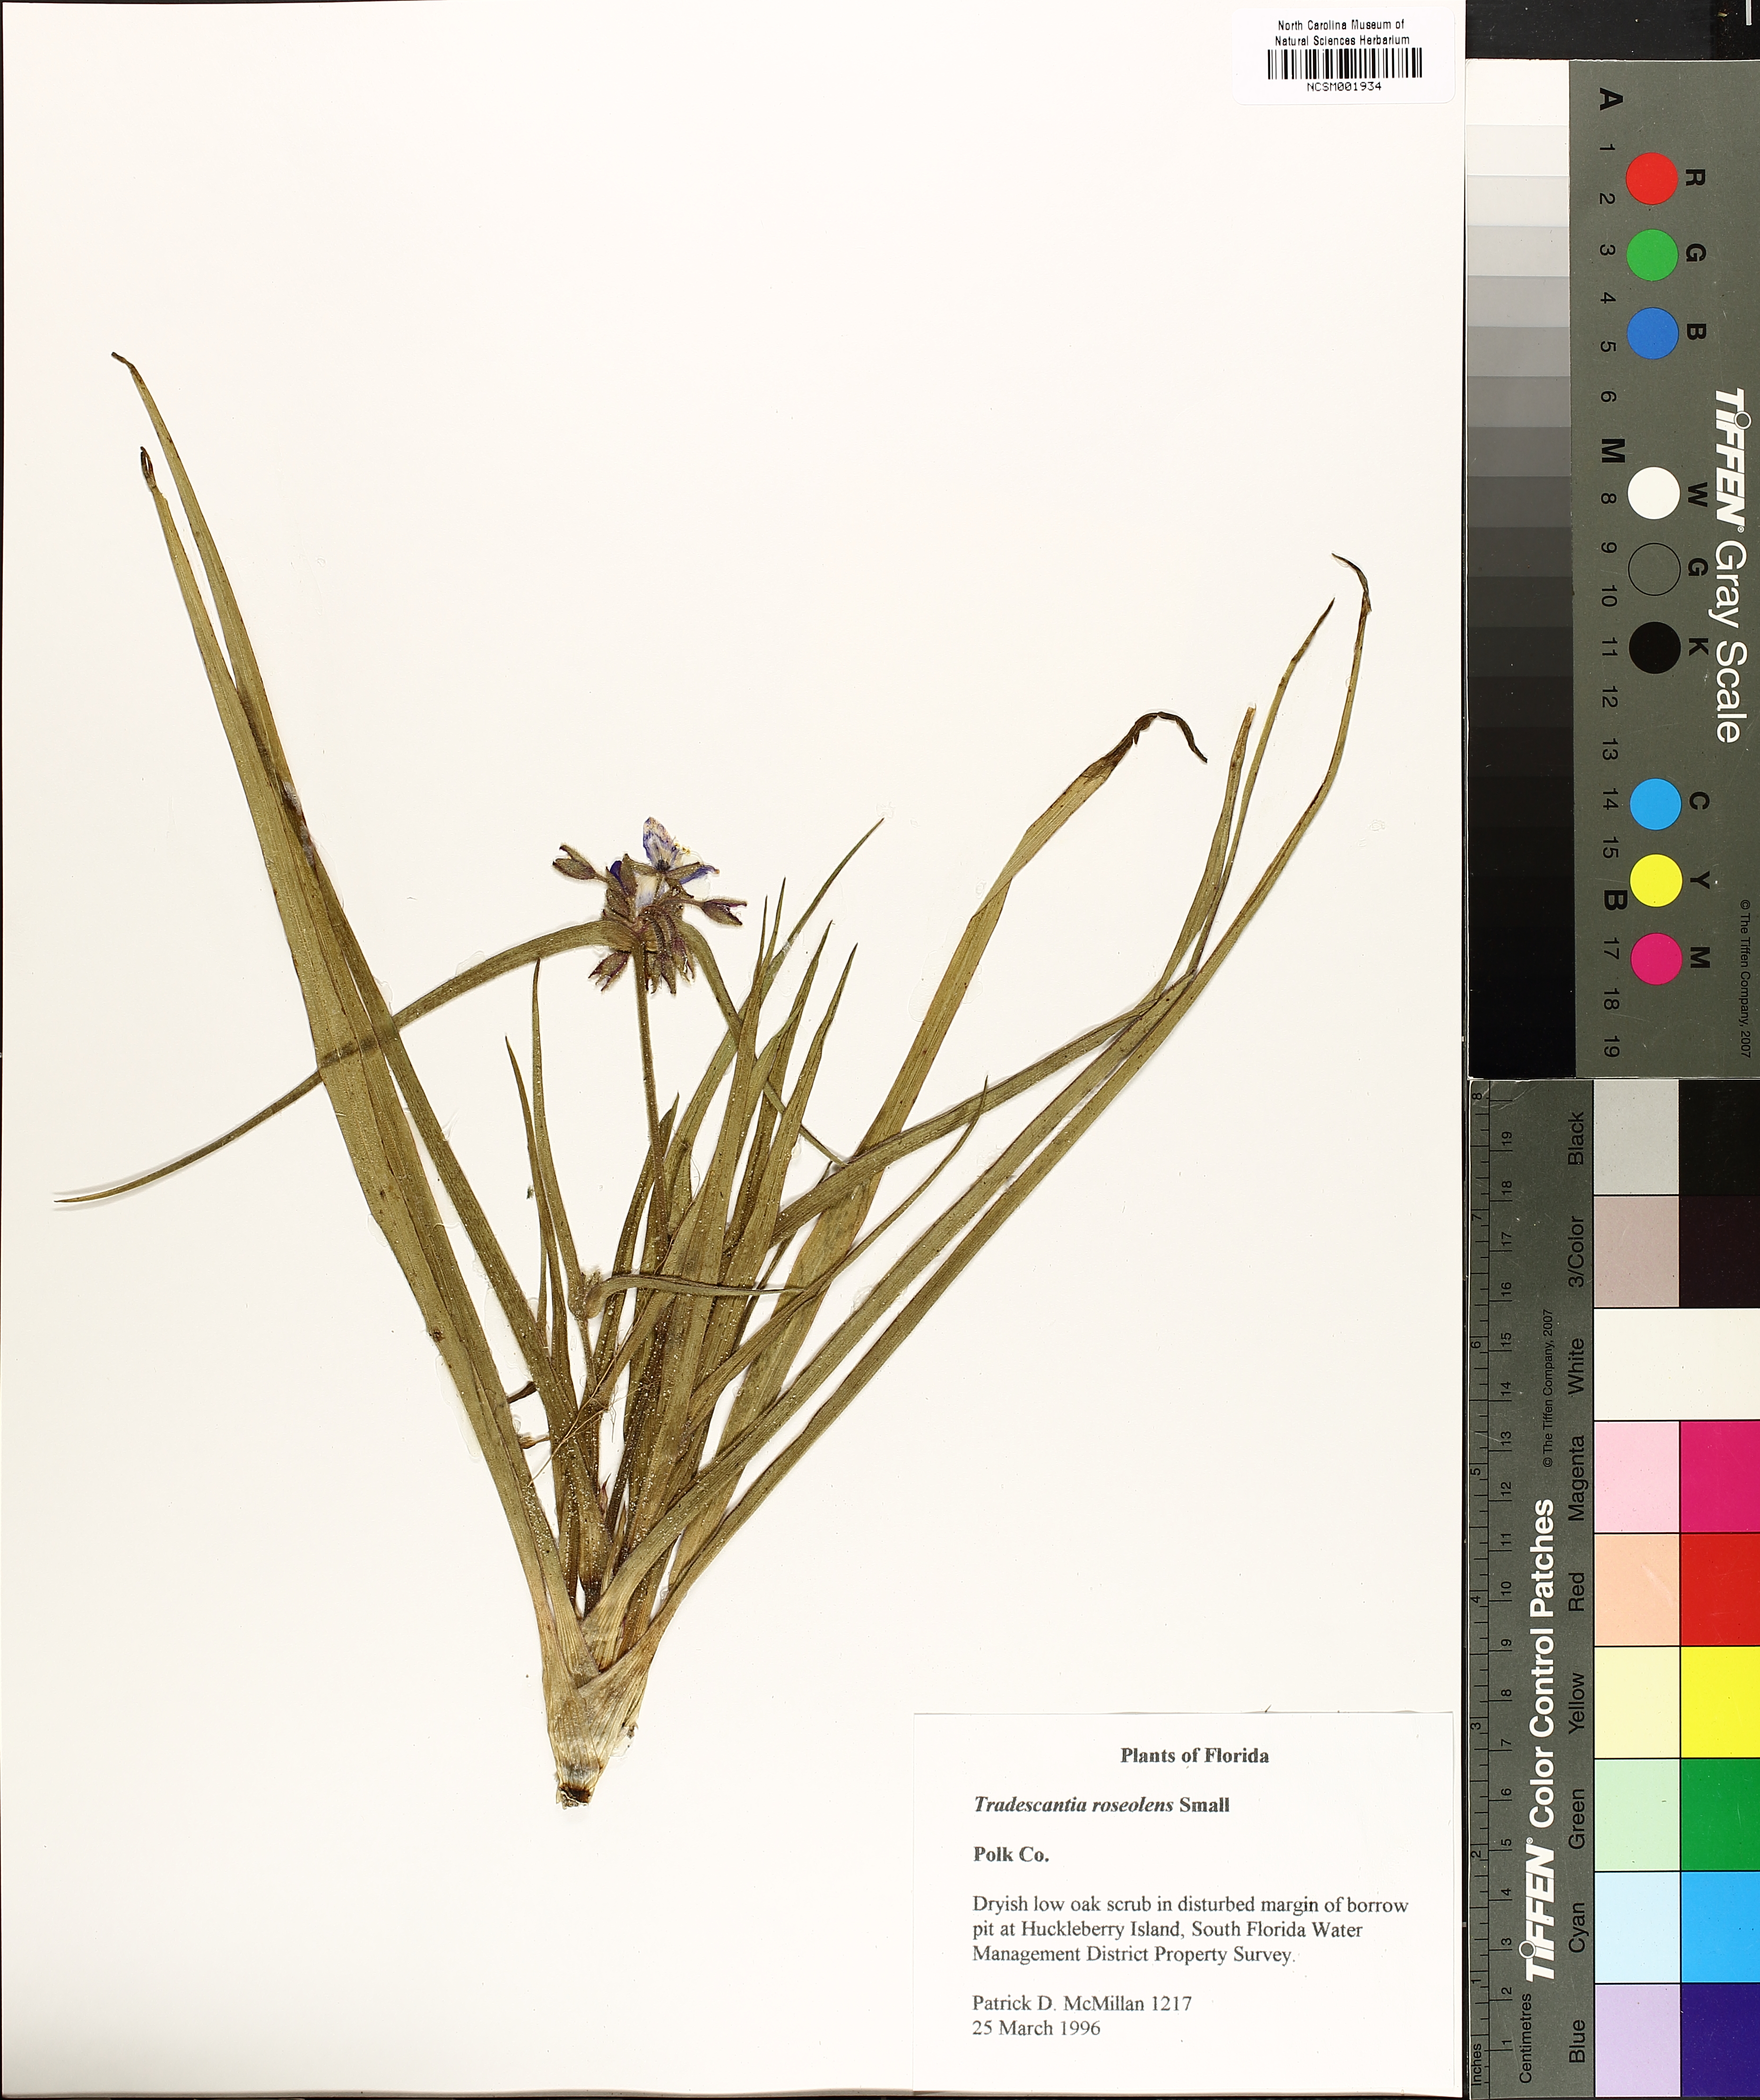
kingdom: Plantae
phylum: Tracheophyta
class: Liliopsida
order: Commelinales
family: Commelinaceae
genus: Tradescantia
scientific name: Tradescantia roseolens
